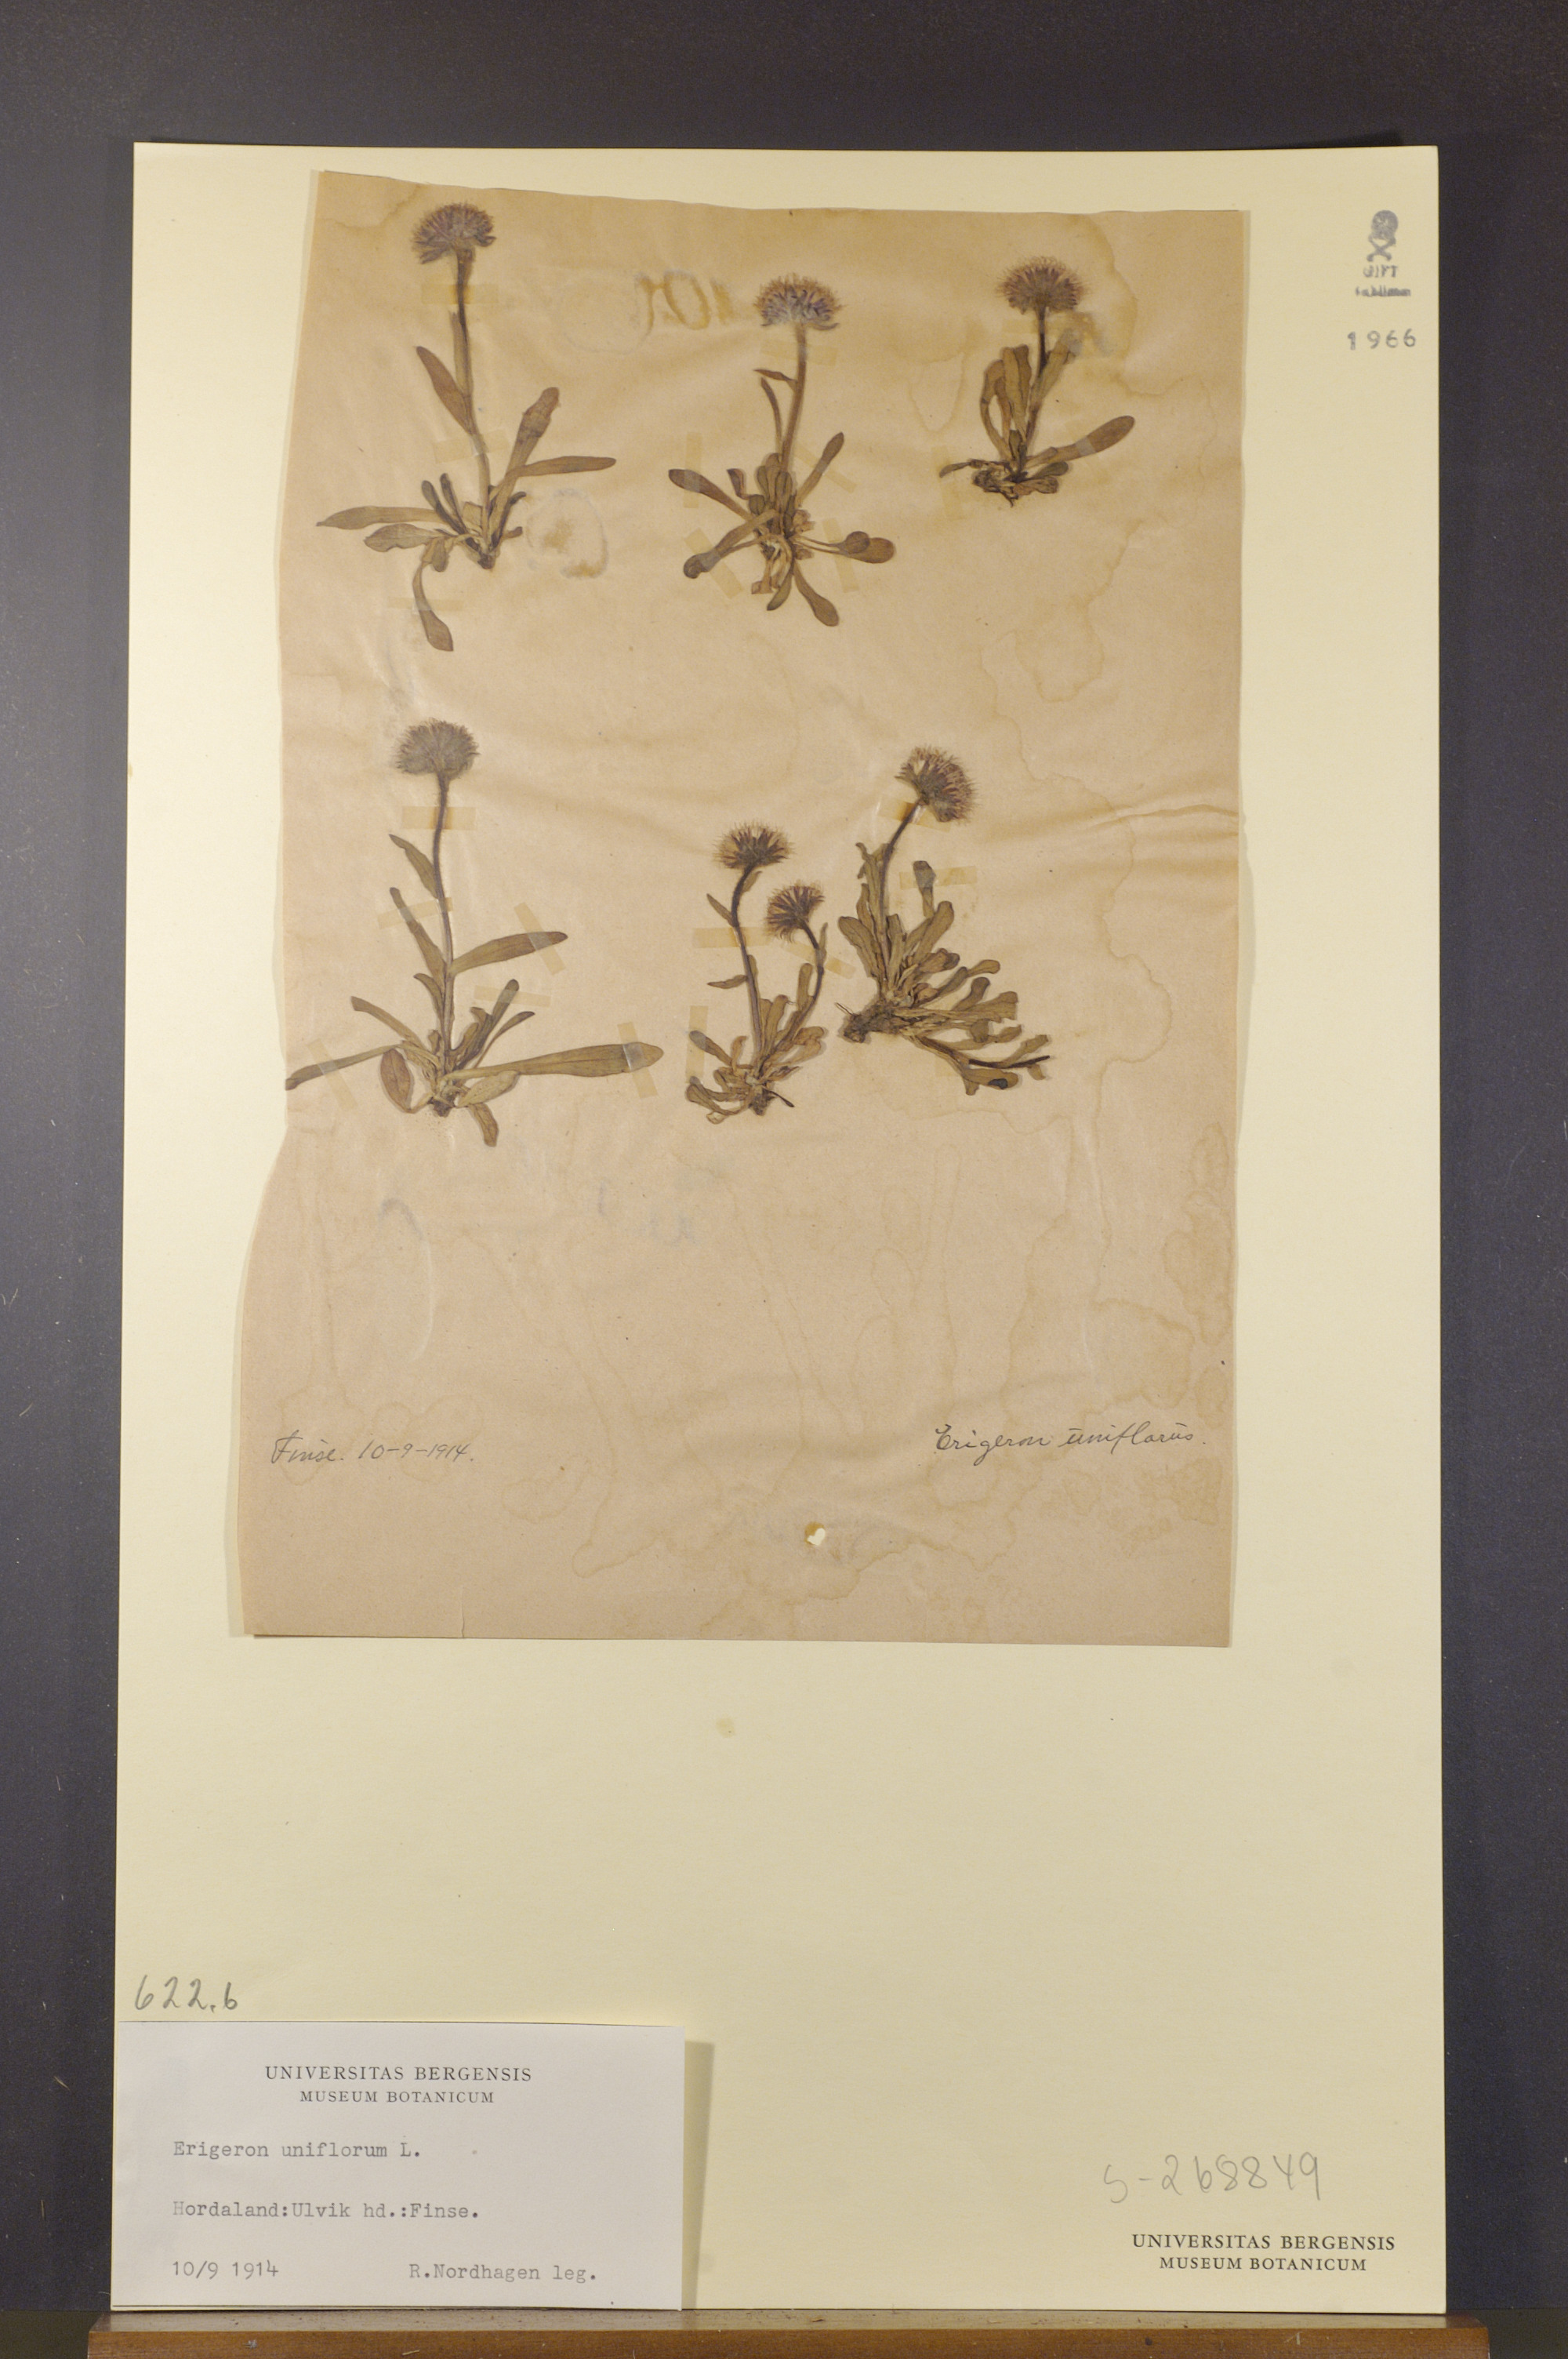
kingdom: Plantae
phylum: Tracheophyta
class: Magnoliopsida
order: Asterales
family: Asteraceae
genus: Erigeron
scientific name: Erigeron uniflorus
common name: Northern daisy
